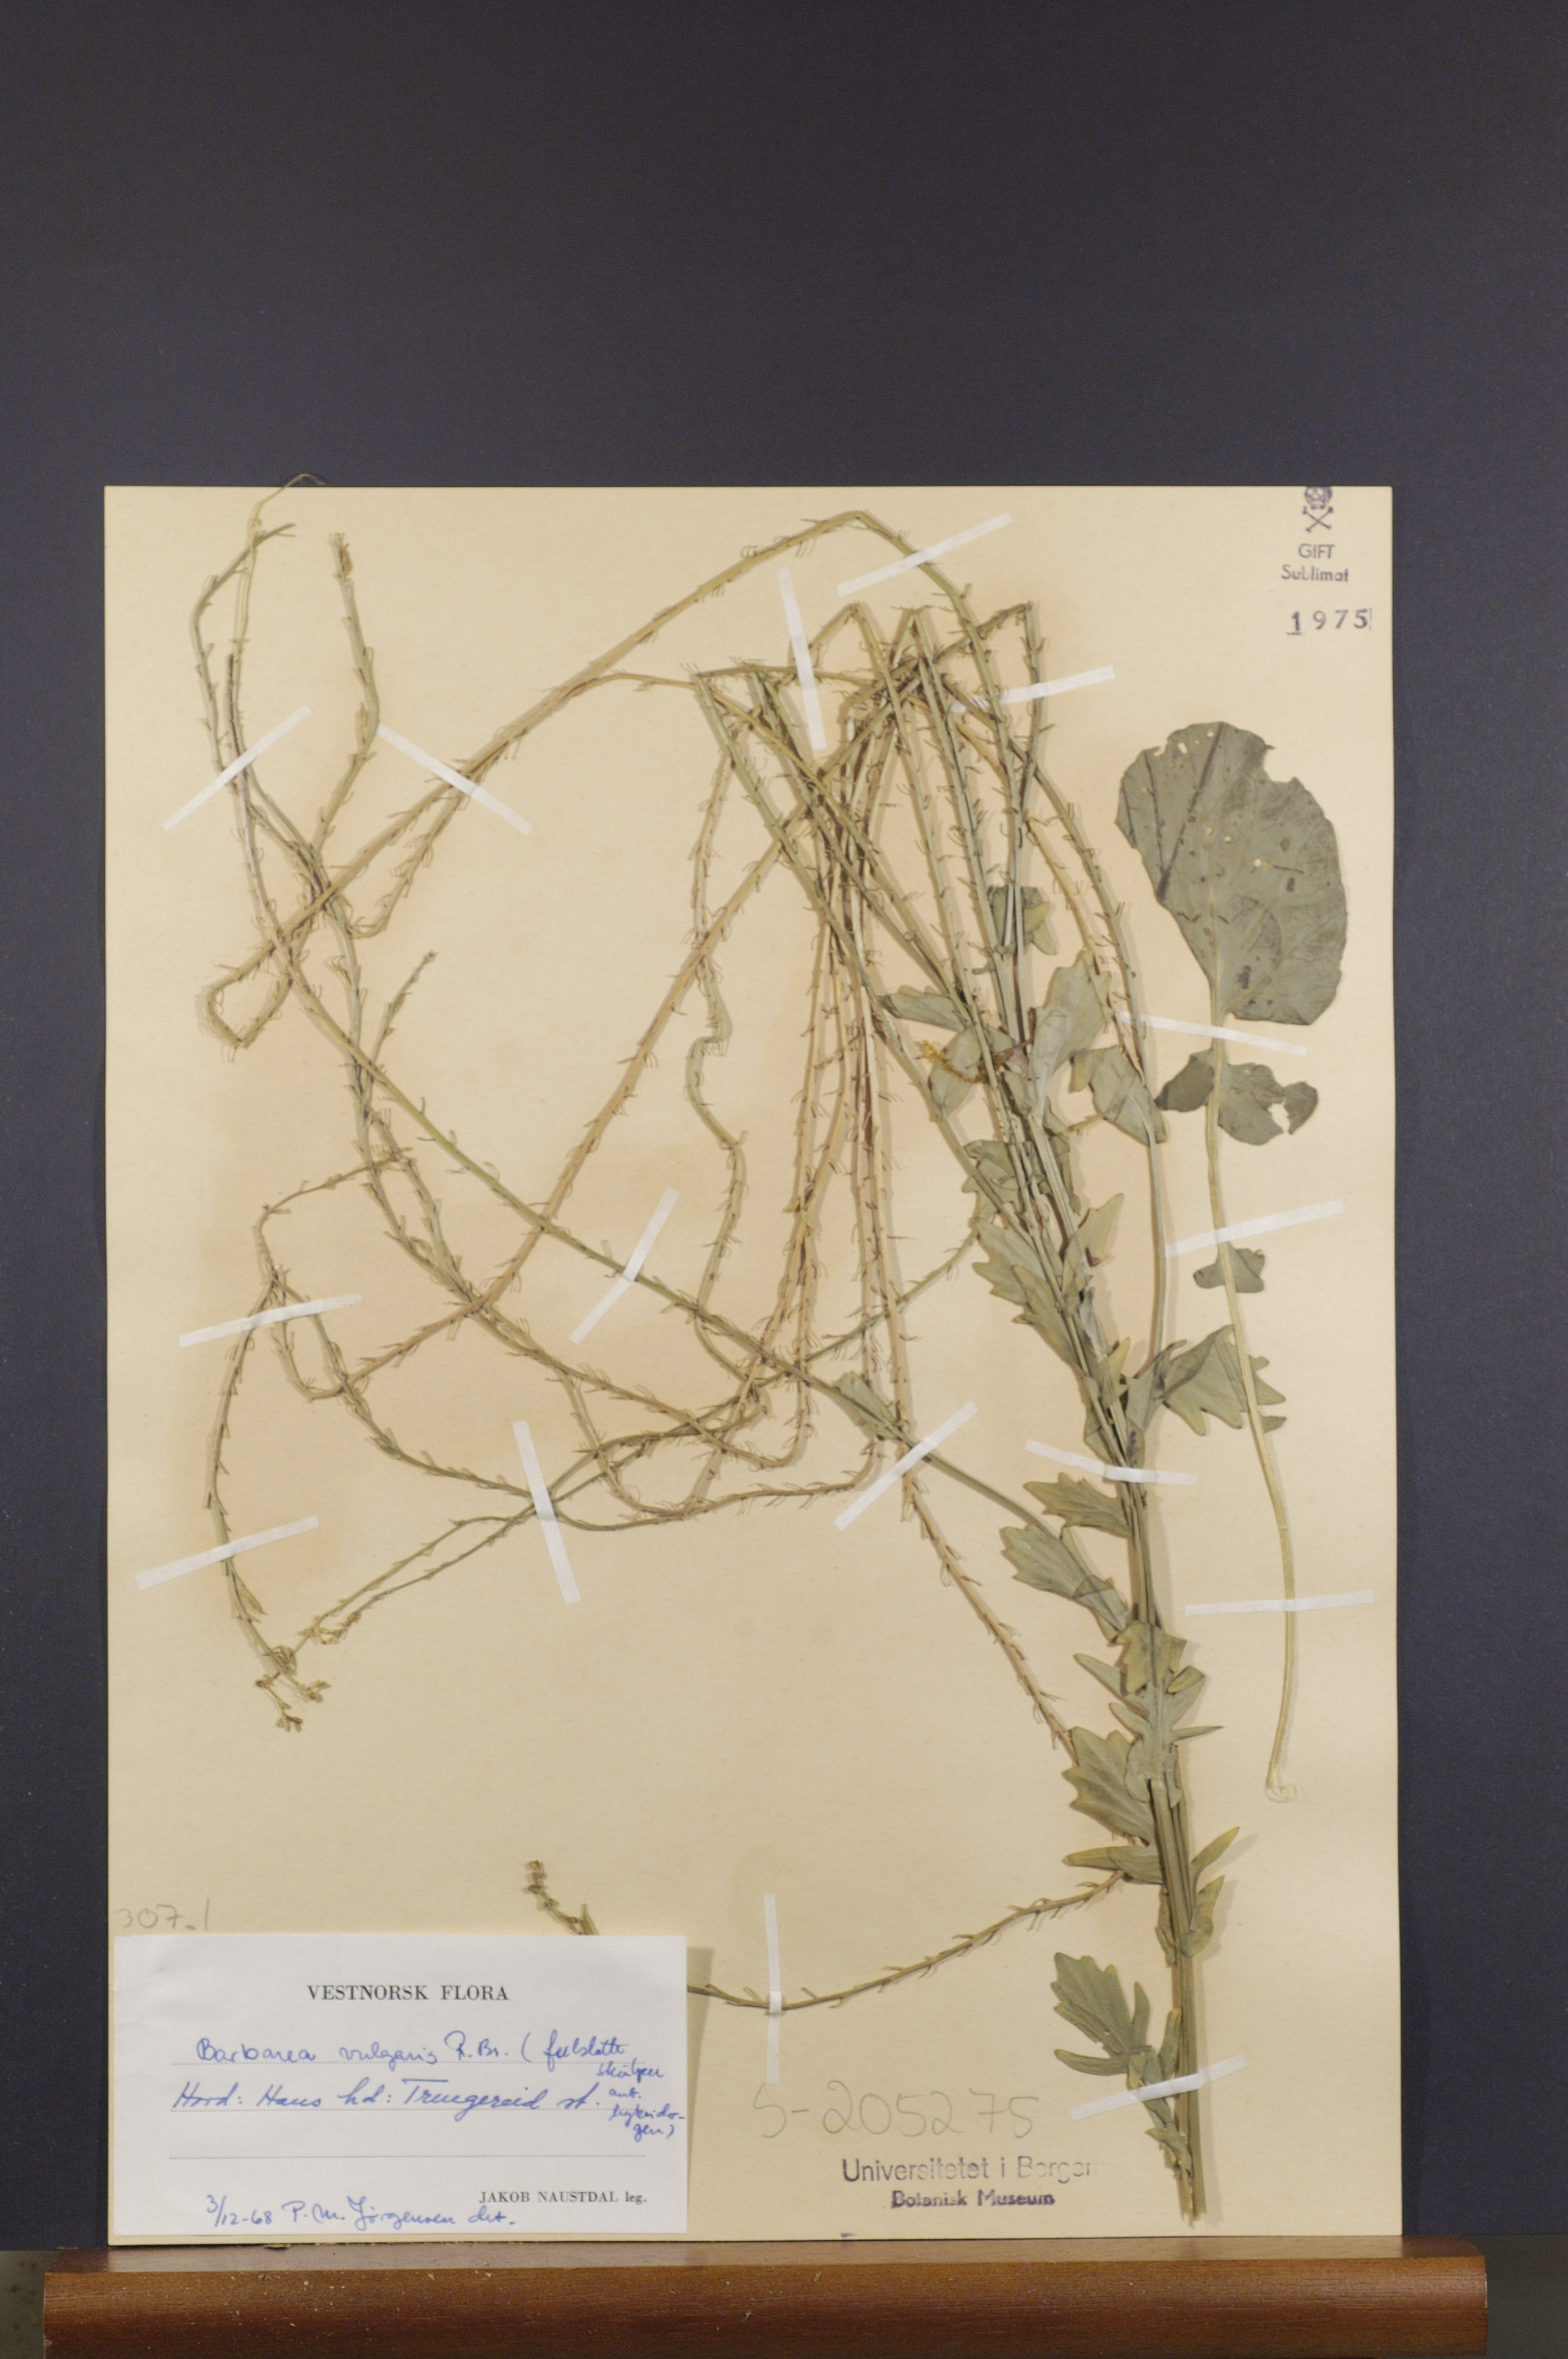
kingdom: Plantae
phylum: Tracheophyta
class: Magnoliopsida
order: Brassicales
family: Brassicaceae
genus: Barbarea
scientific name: Barbarea vulgaris
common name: Cressy-greens
